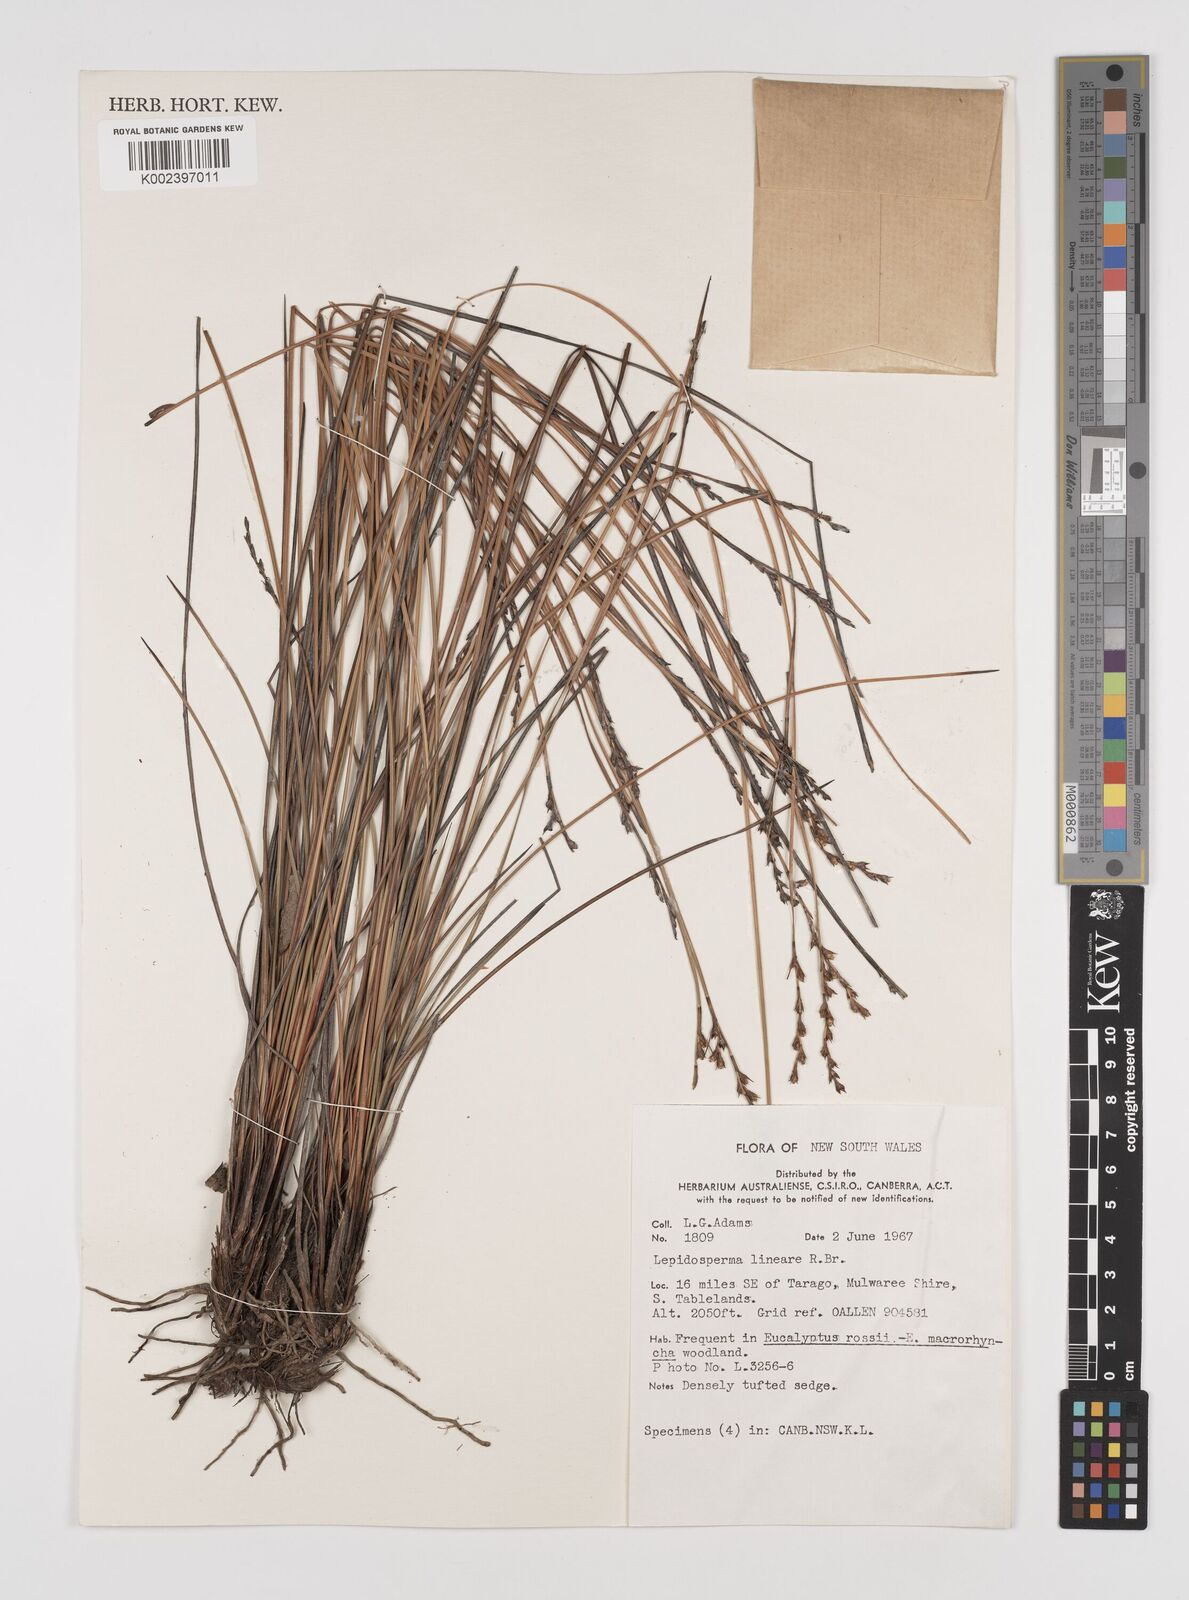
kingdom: Plantae
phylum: Tracheophyta
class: Liliopsida
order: Poales
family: Cyperaceae
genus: Lepidosperma
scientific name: Lepidosperma lineare
